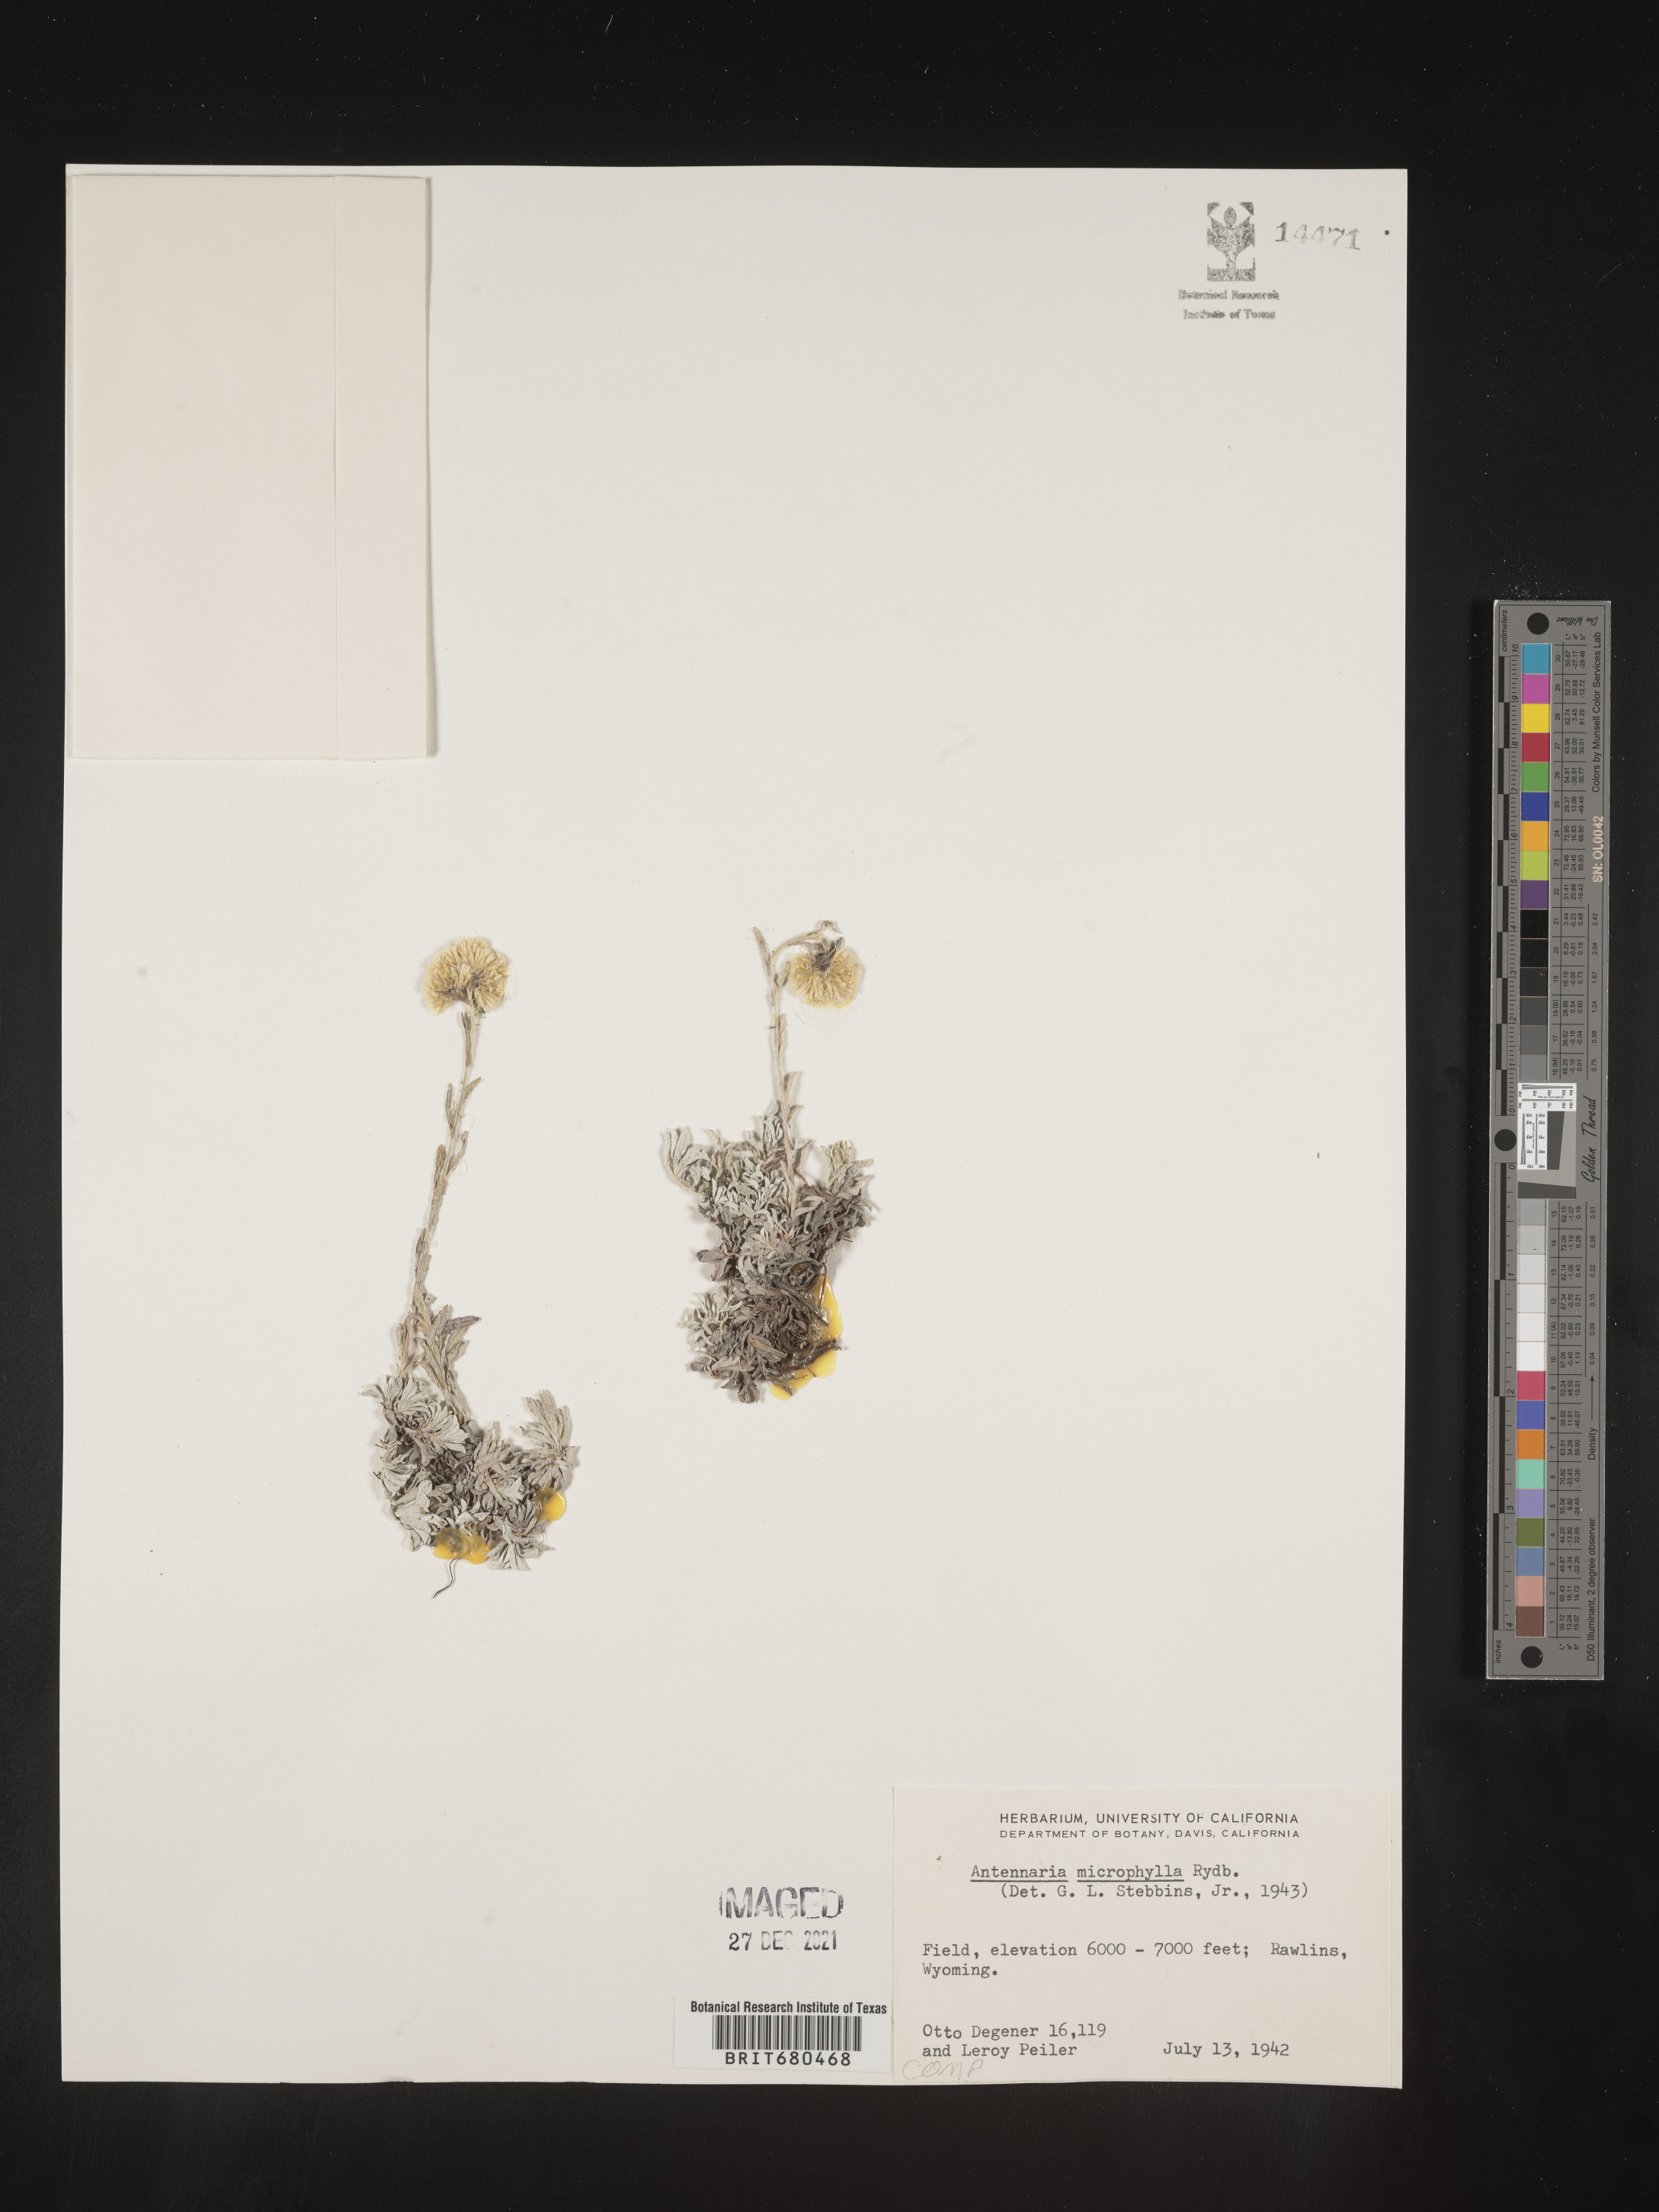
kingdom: Plantae
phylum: Tracheophyta
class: Magnoliopsida
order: Asterales
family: Asteraceae
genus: Antennaria
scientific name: Antennaria rosea
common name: Rosy pussytoes
